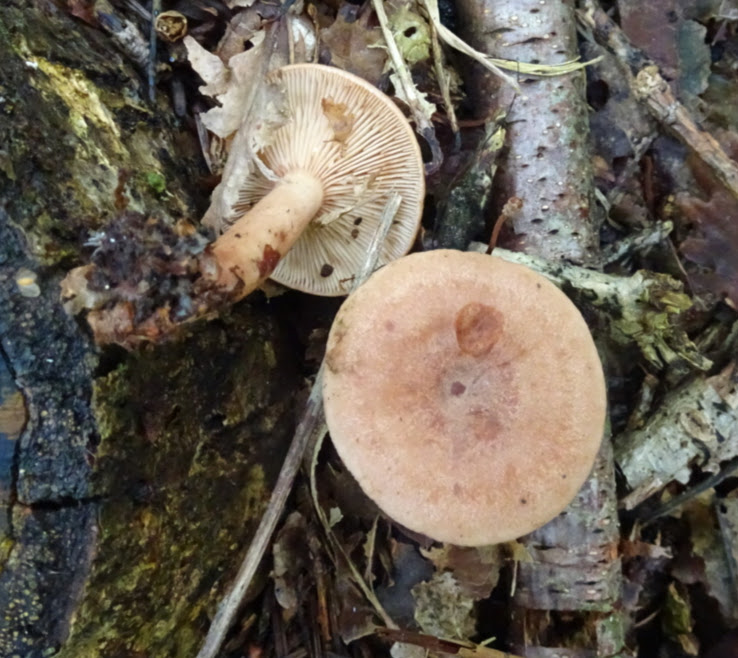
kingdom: Fungi
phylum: Basidiomycota
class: Agaricomycetes
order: Russulales
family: Russulaceae
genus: Lactarius
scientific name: Lactarius quietus
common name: ege-mælkehat
